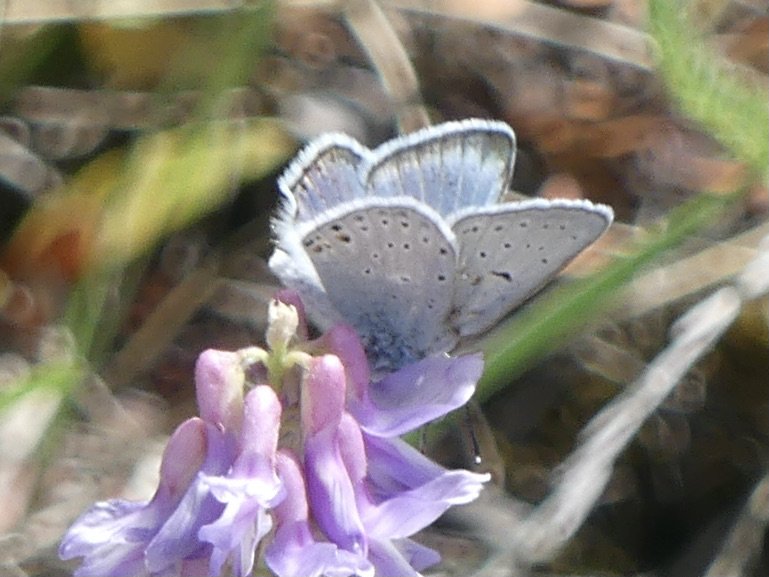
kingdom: Animalia
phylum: Arthropoda
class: Insecta
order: Lepidoptera
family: Lycaenidae
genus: Plebejus
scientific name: Plebejus saepiolus
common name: Greenish Blue
